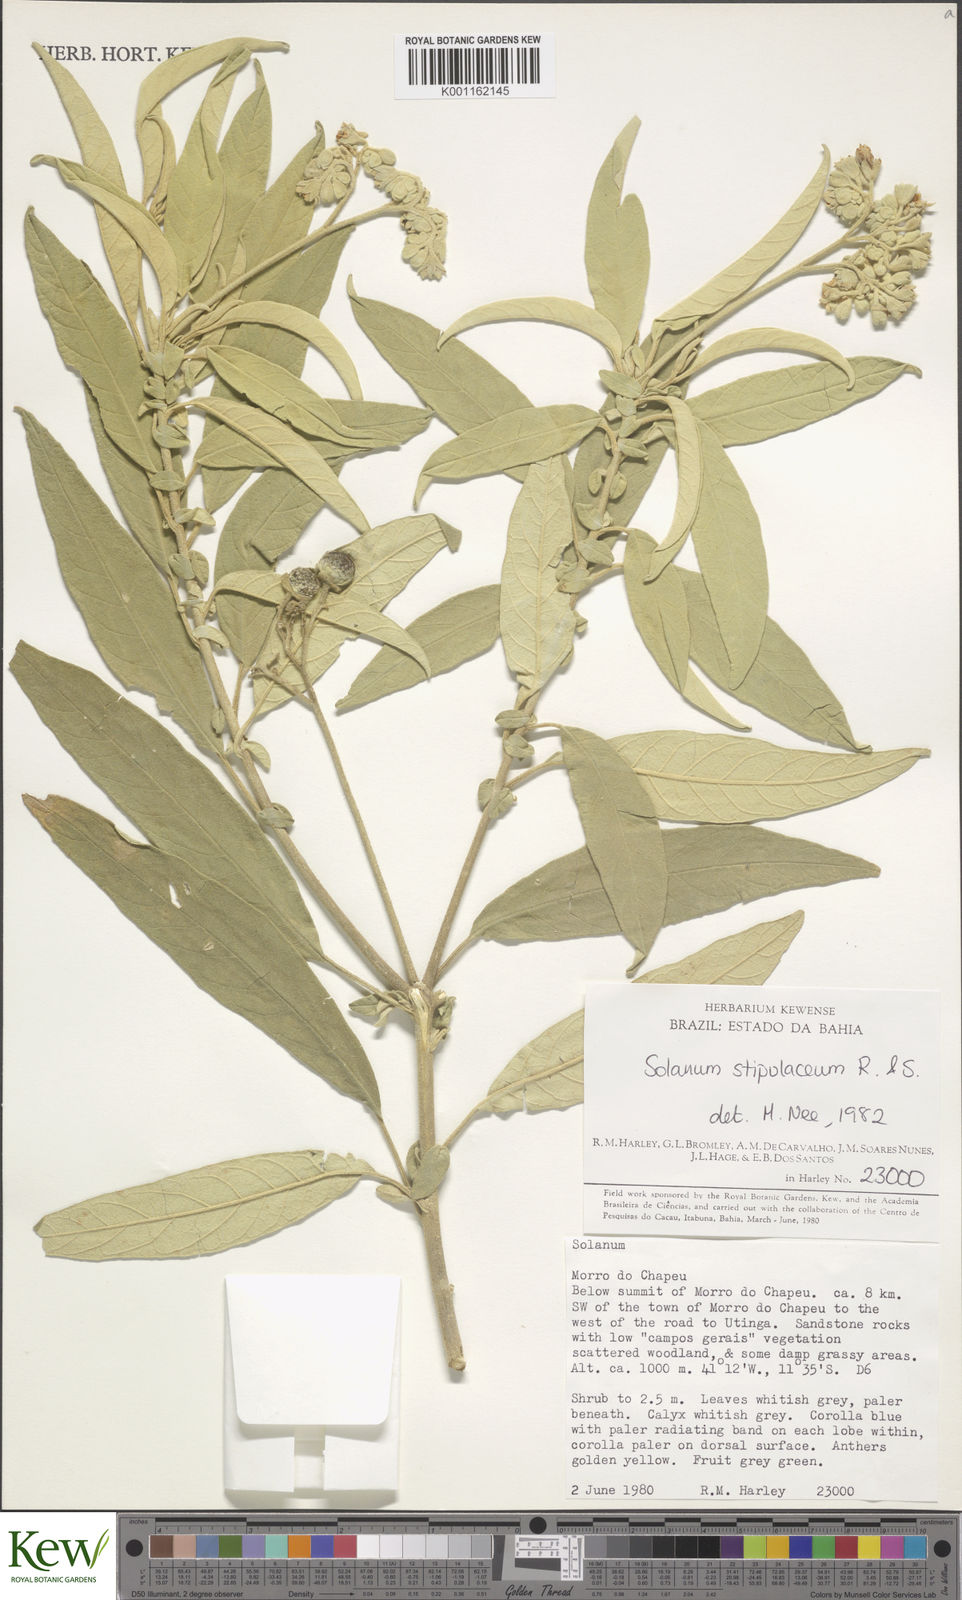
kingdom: Plantae
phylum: Tracheophyta
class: Magnoliopsida
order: Solanales
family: Solanaceae
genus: Solanum
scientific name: Solanum stipulaceum
